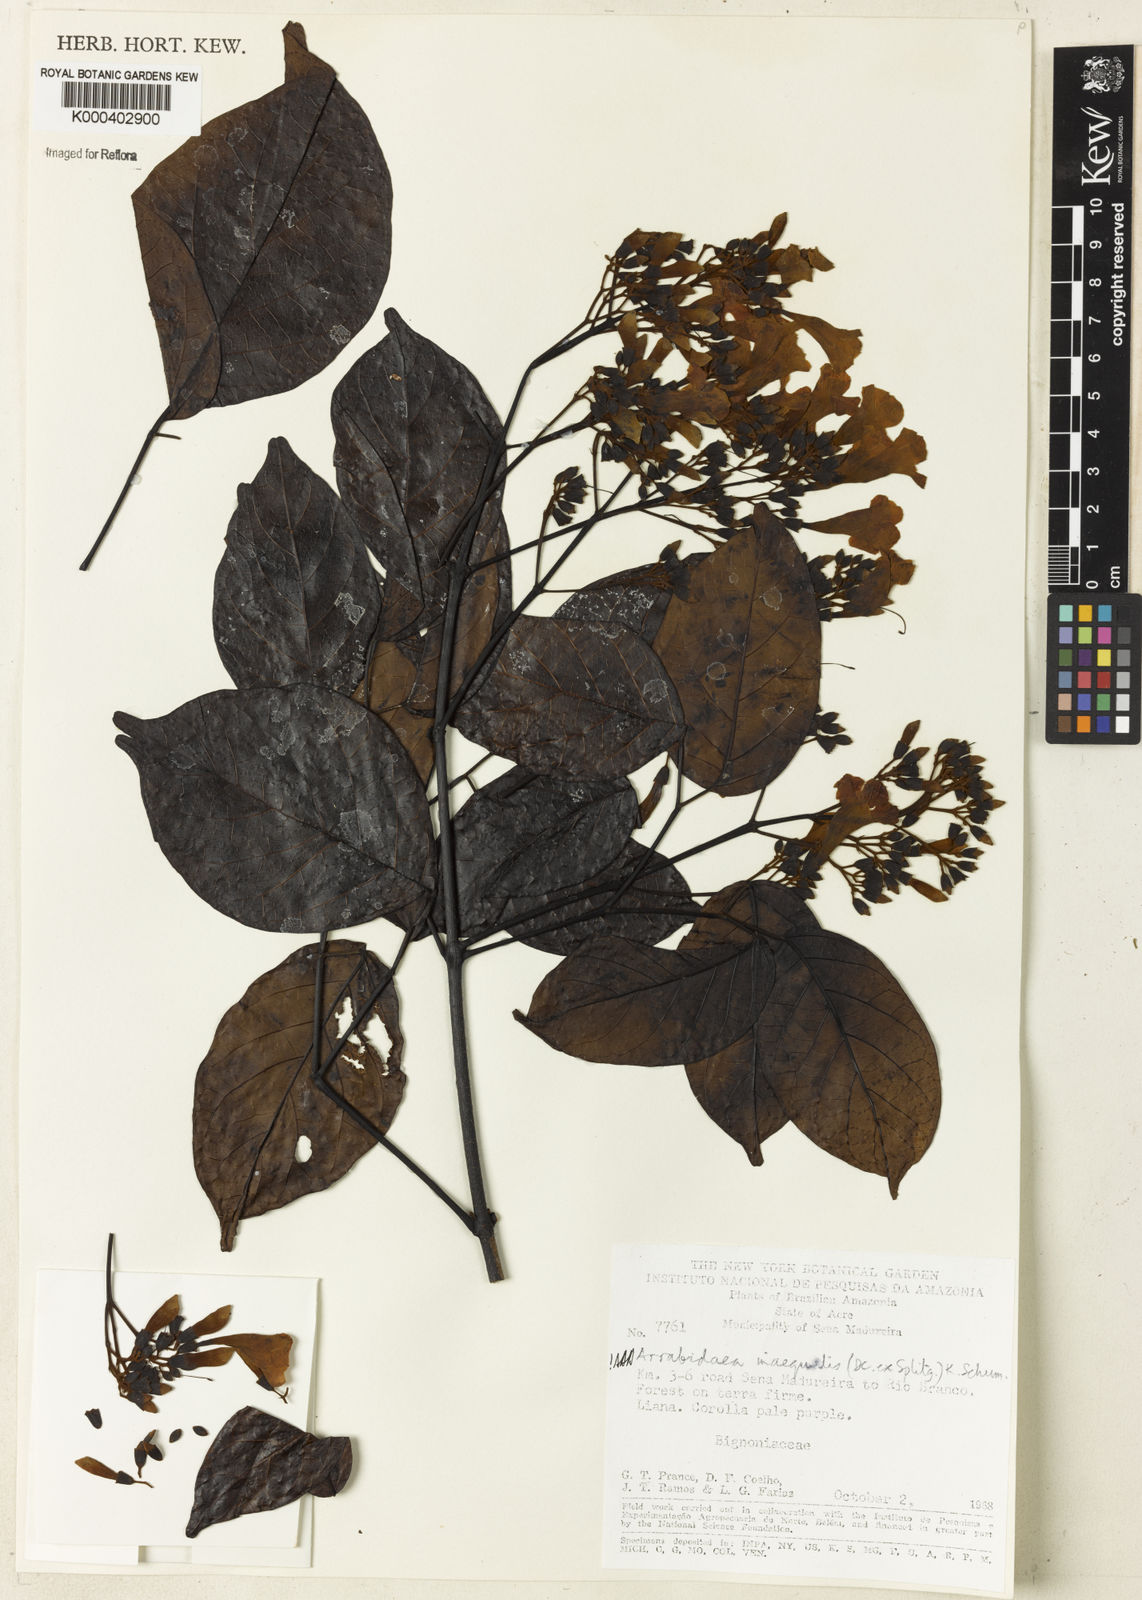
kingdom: Plantae
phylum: Tracheophyta
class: Magnoliopsida
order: Lamiales
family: Bignoniaceae
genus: Cuspidaria
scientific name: Cuspidaria inaequalis
